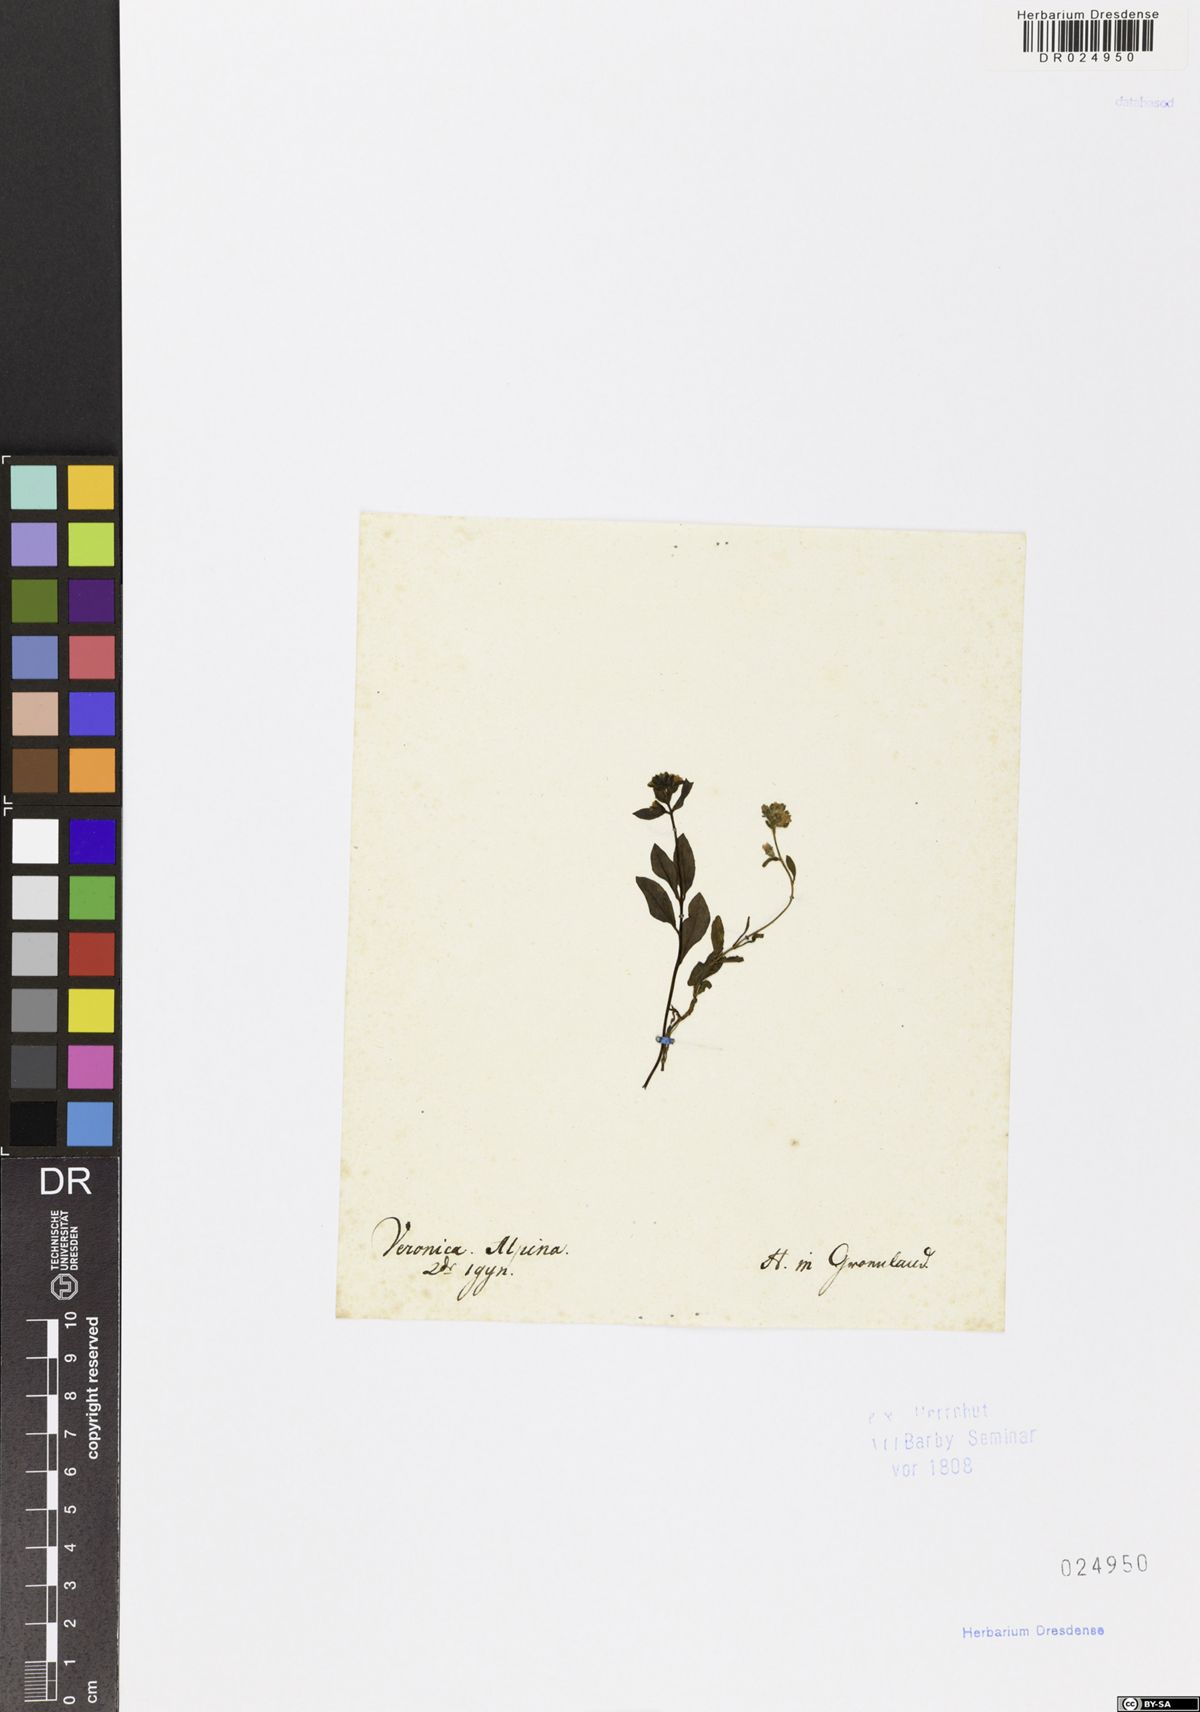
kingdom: Plantae
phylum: Tracheophyta
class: Magnoliopsida
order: Lamiales
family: Plantaginaceae
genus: Veronica
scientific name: Veronica alpina
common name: Alpine speedwell
